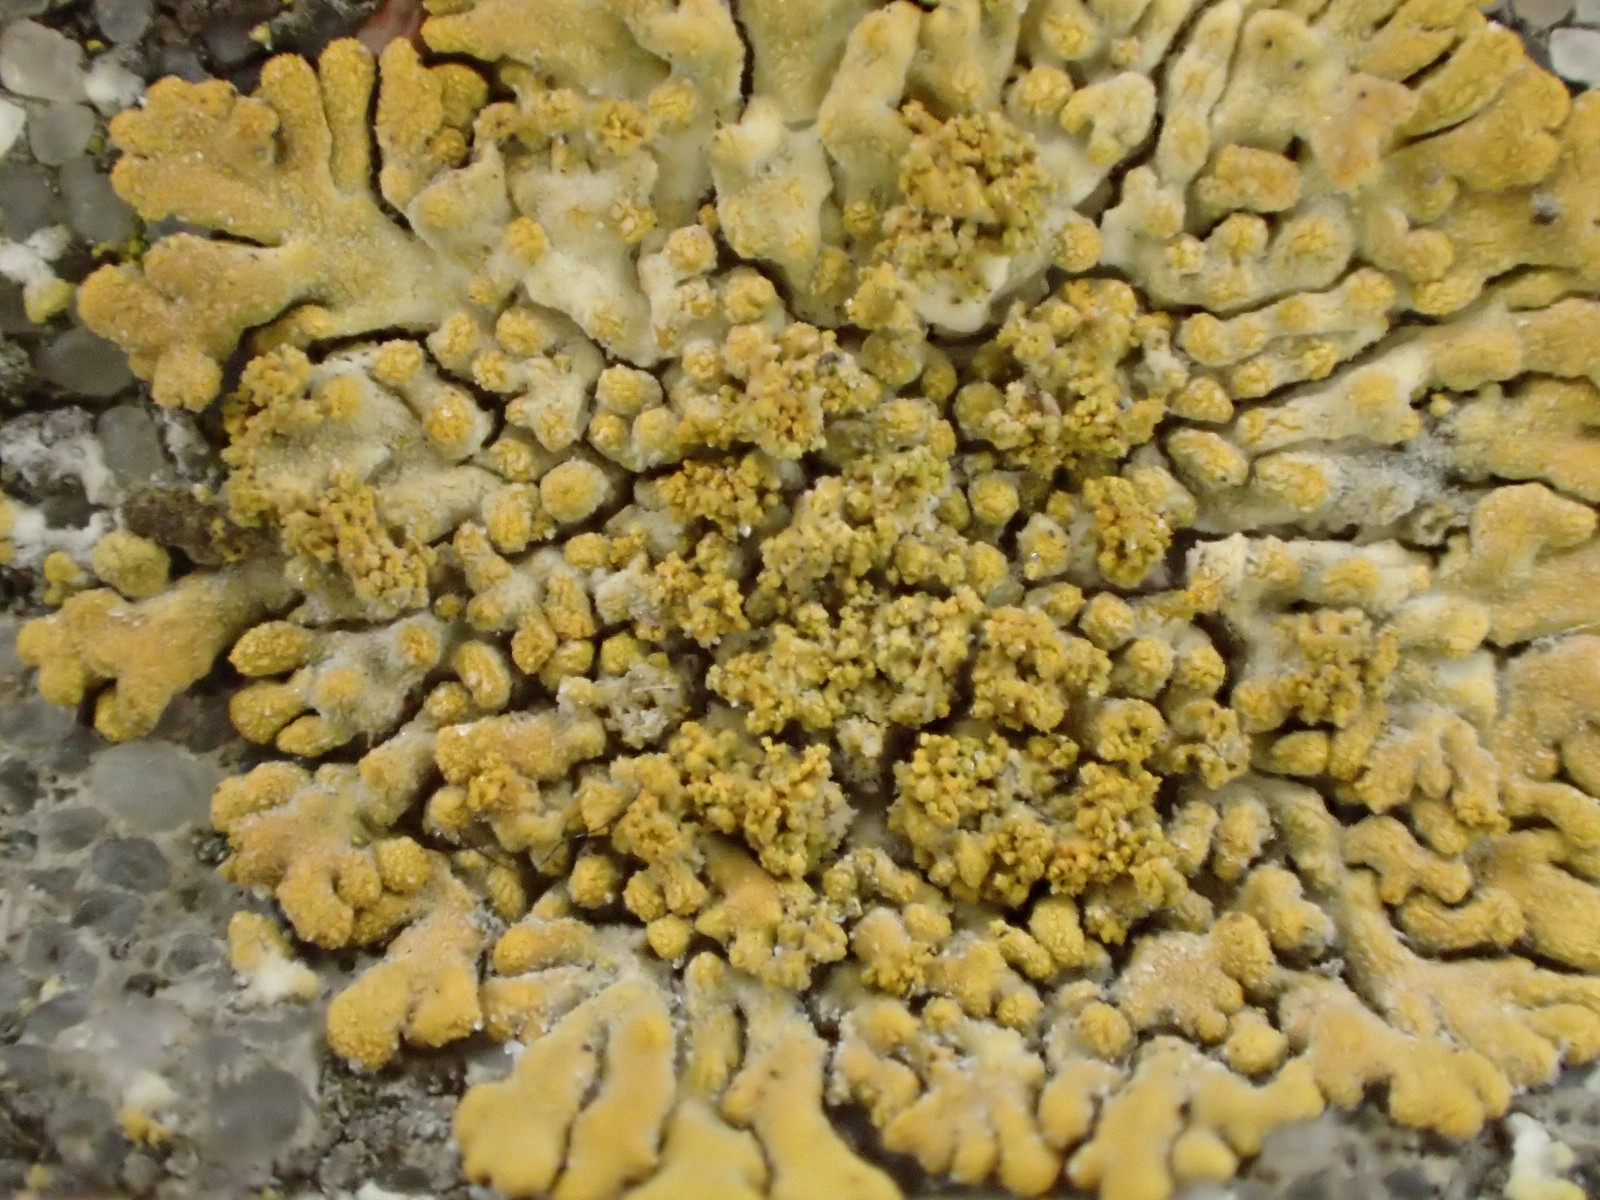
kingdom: Fungi
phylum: Ascomycota
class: Lecanoromycetes
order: Teloschistales
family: Teloschistaceae
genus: Calogaya
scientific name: Calogaya decipiens
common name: knudret orangelav
